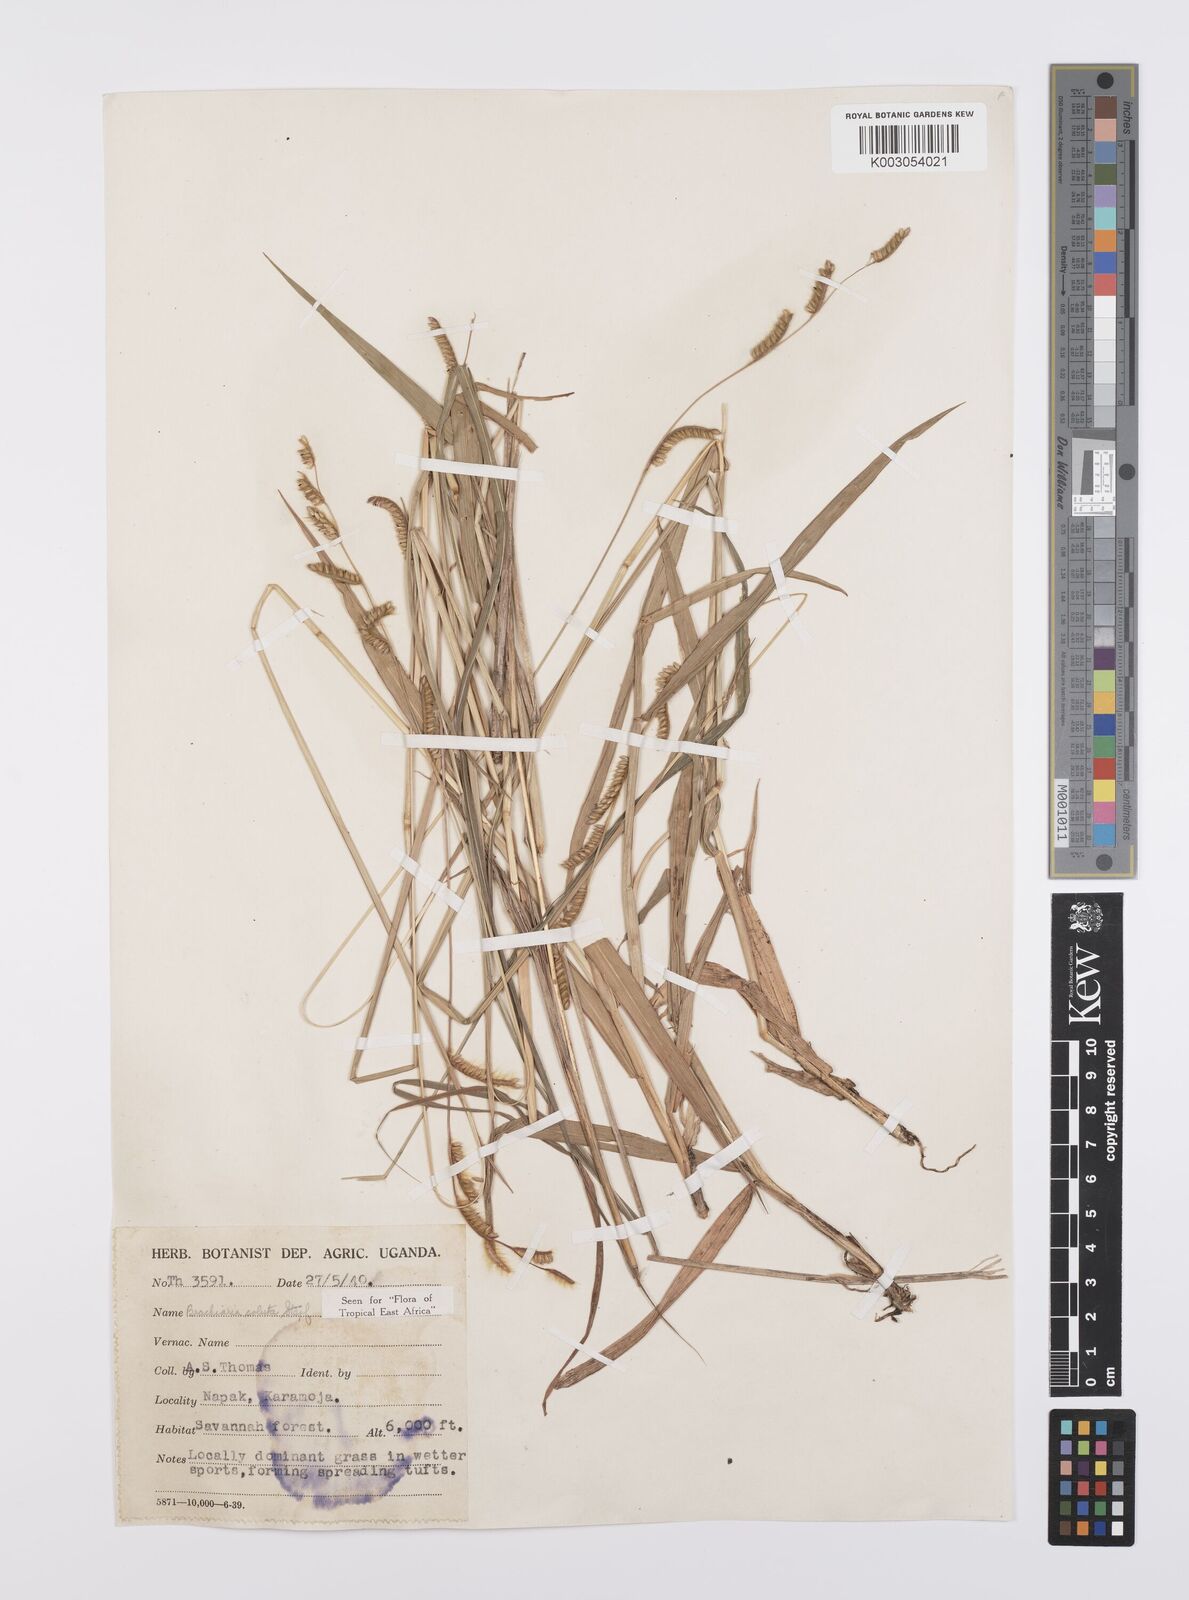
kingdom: Plantae
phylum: Tracheophyta
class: Liliopsida
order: Poales
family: Poaceae
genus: Urochloa
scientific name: Urochloa jubata
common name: Buffalograss
